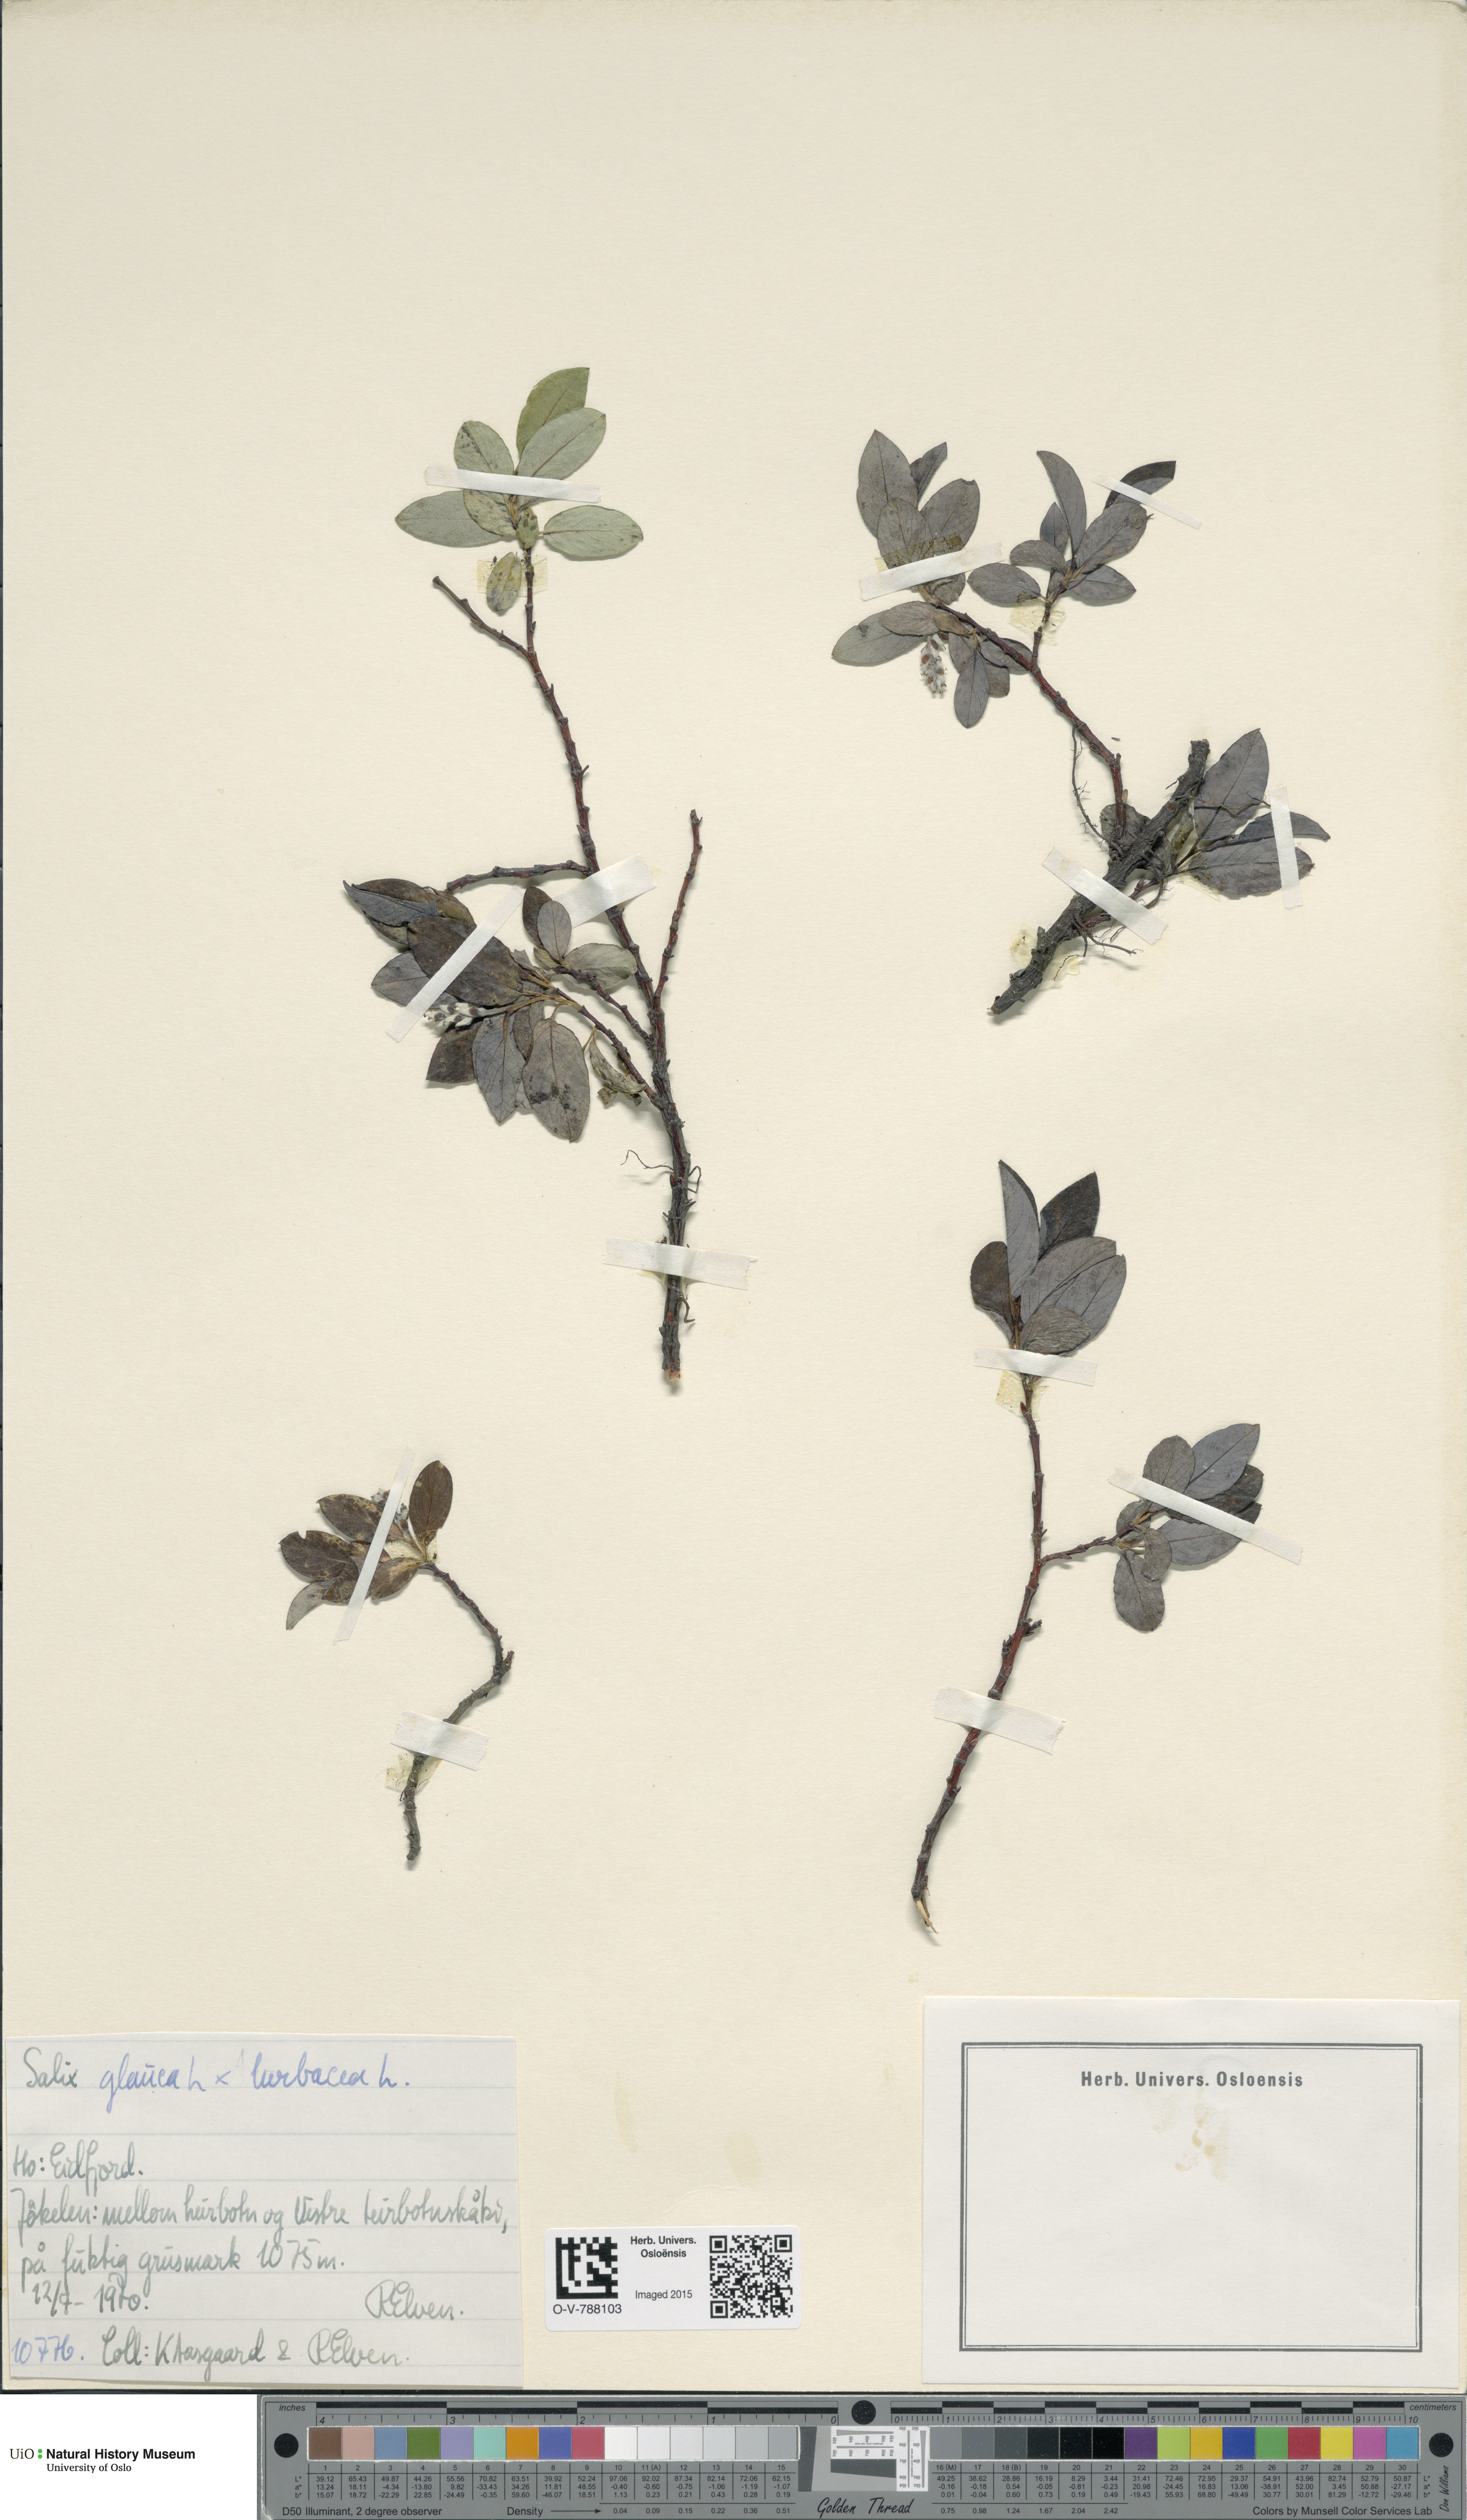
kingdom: Plantae
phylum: Tracheophyta
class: Magnoliopsida
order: Malpighiales
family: Salicaceae
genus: Salix
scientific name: Salix
